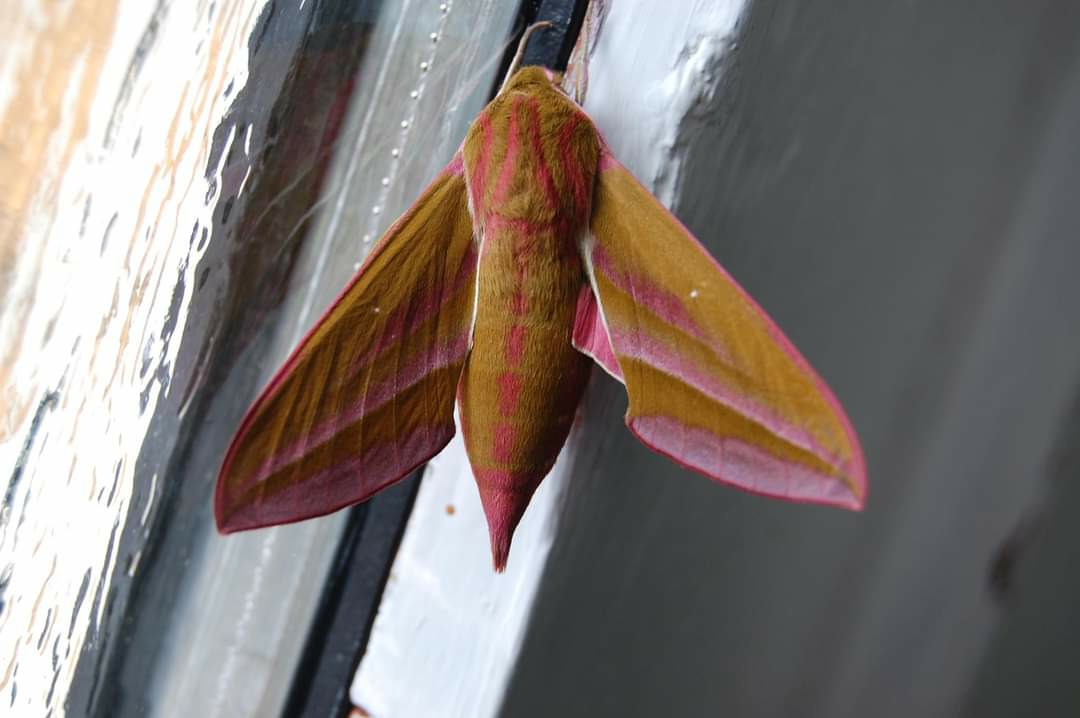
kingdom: Animalia
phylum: Arthropoda
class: Insecta
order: Lepidoptera
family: Sphingidae
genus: Deilephila
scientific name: Deilephila elpenor
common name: Dueurtsværmer
